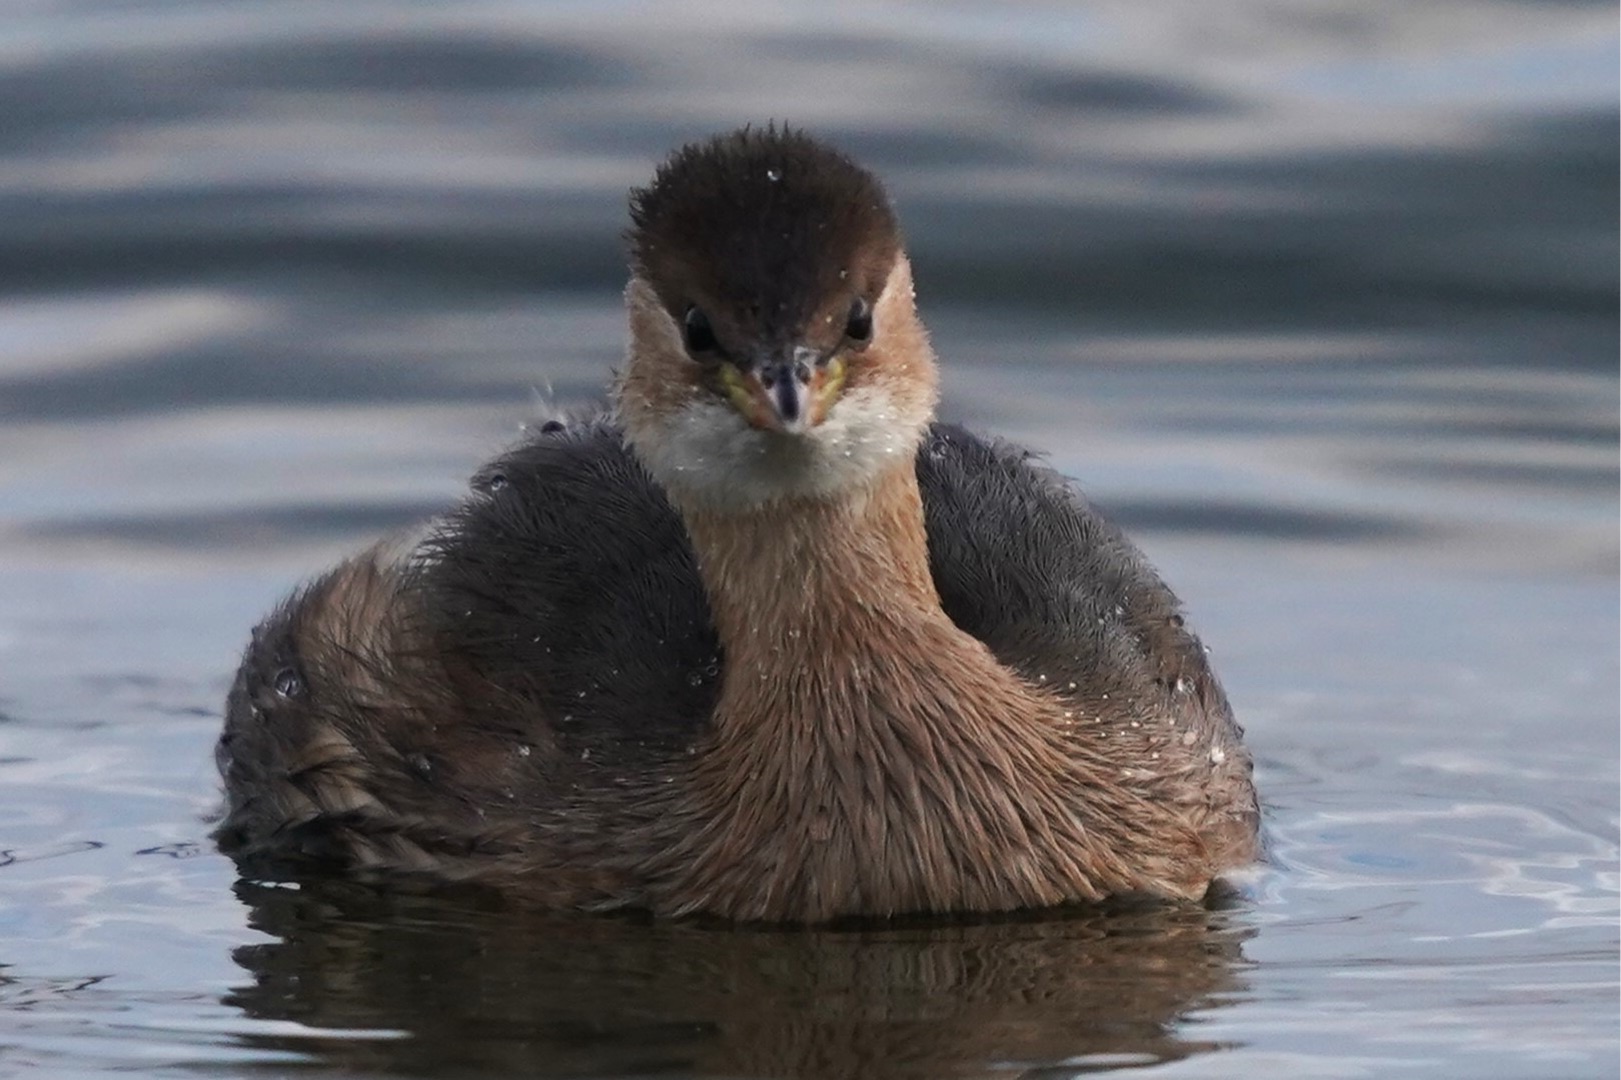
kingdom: Animalia
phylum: Chordata
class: Aves
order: Podicipediformes
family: Podicipedidae
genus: Tachybaptus
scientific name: Tachybaptus ruficollis
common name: Lille lappedykker
